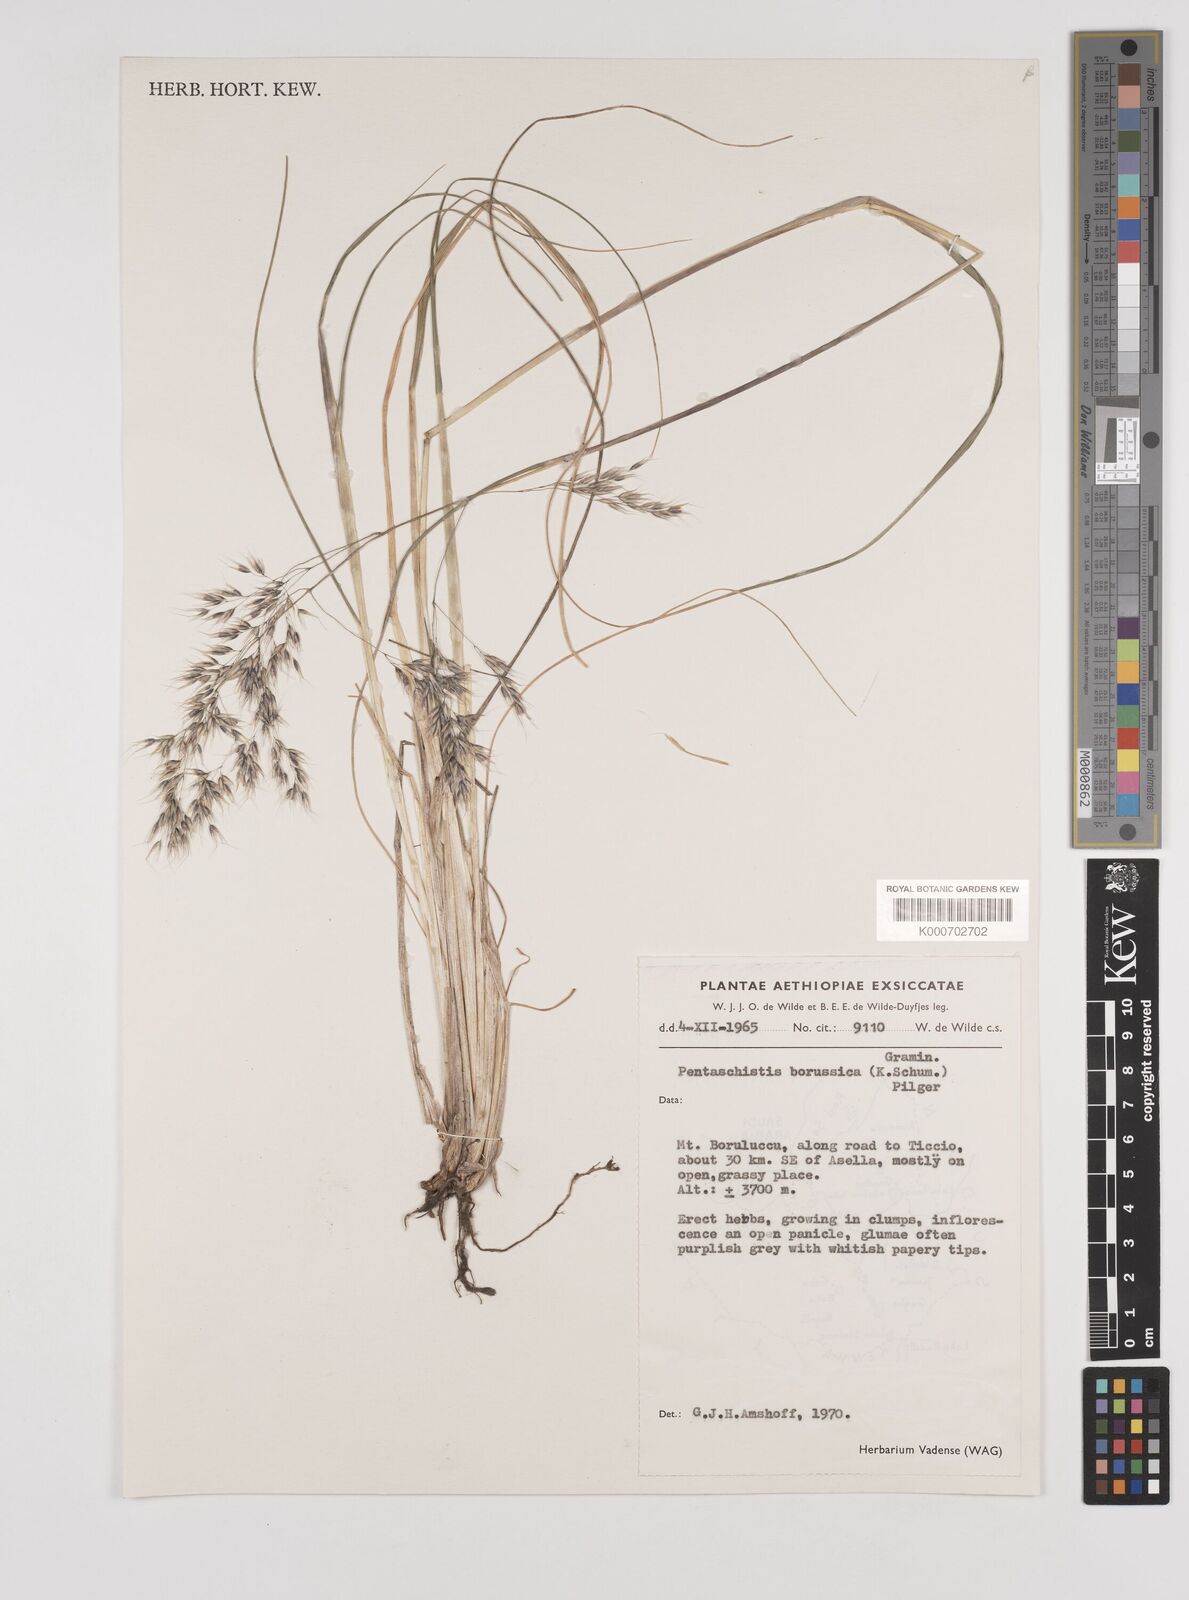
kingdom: Plantae
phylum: Tracheophyta
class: Liliopsida
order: Poales
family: Poaceae
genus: Pentameris
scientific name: Pentameris borussica
